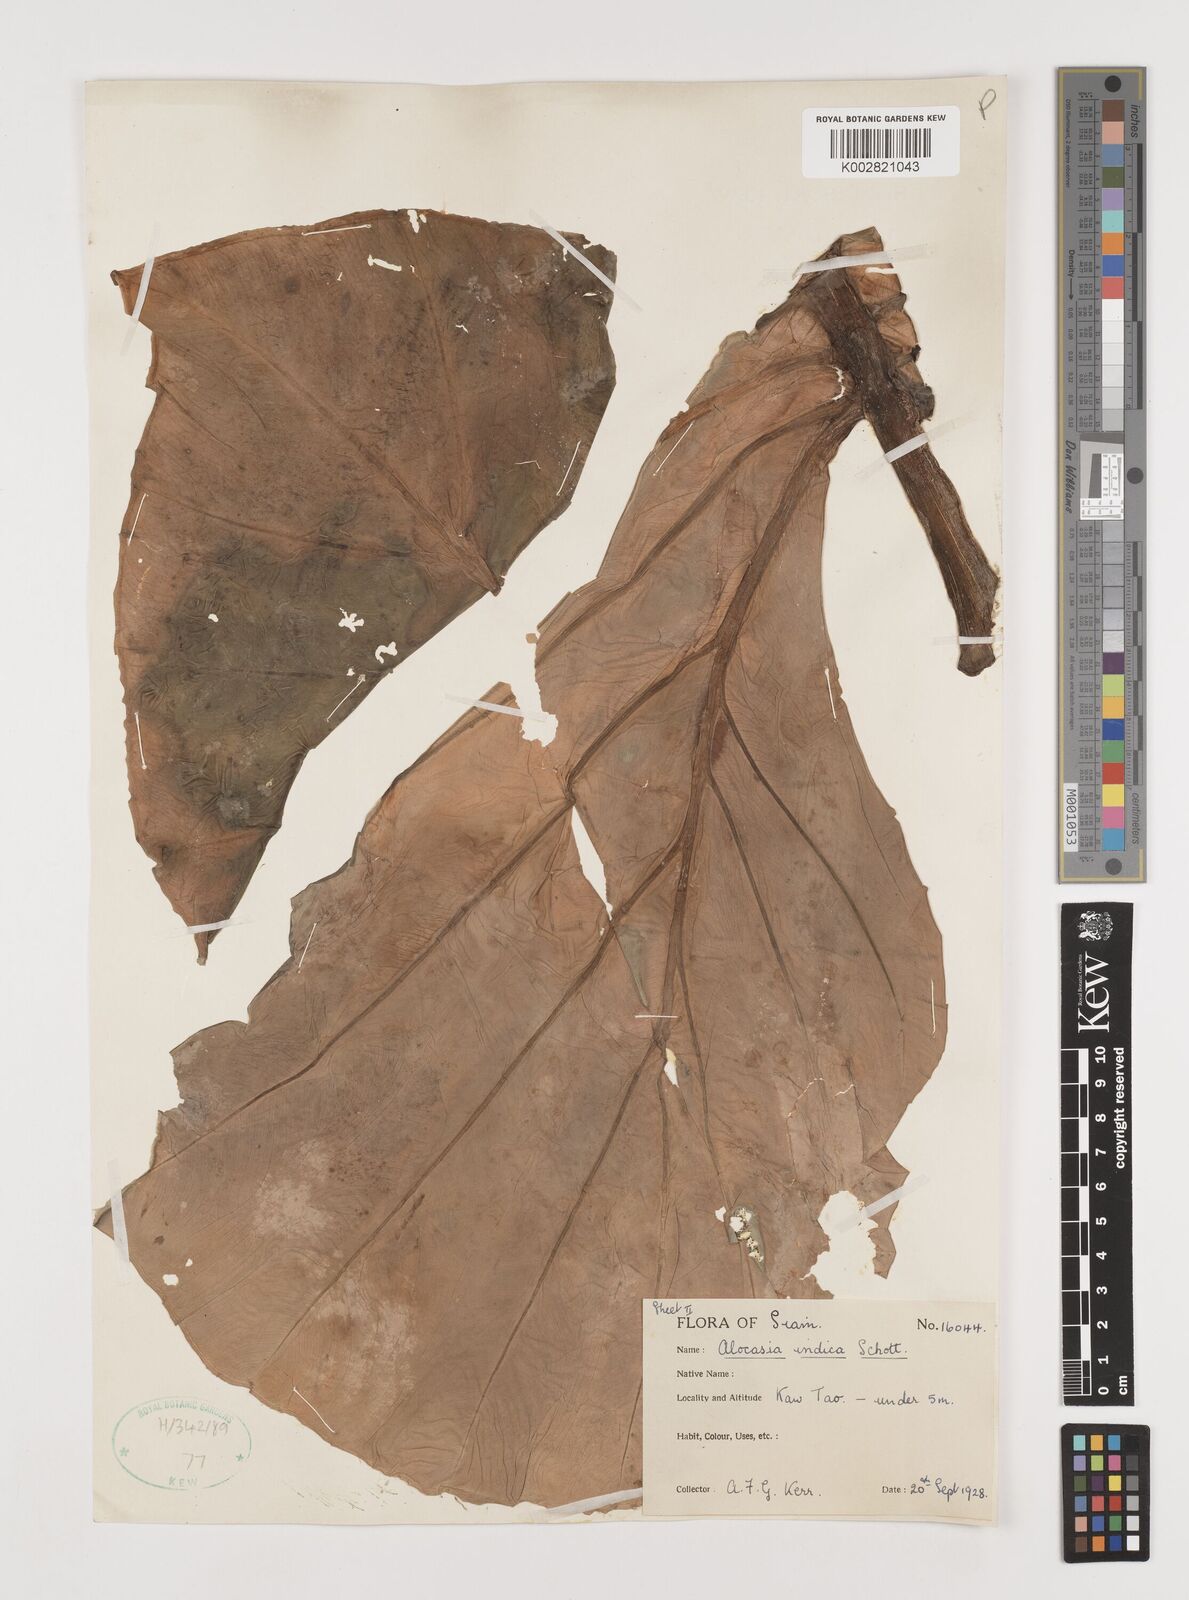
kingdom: Plantae
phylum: Tracheophyta
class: Liliopsida
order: Alismatales
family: Araceae
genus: Alocasia
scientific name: Alocasia macrorrhizos
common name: Giant taro
